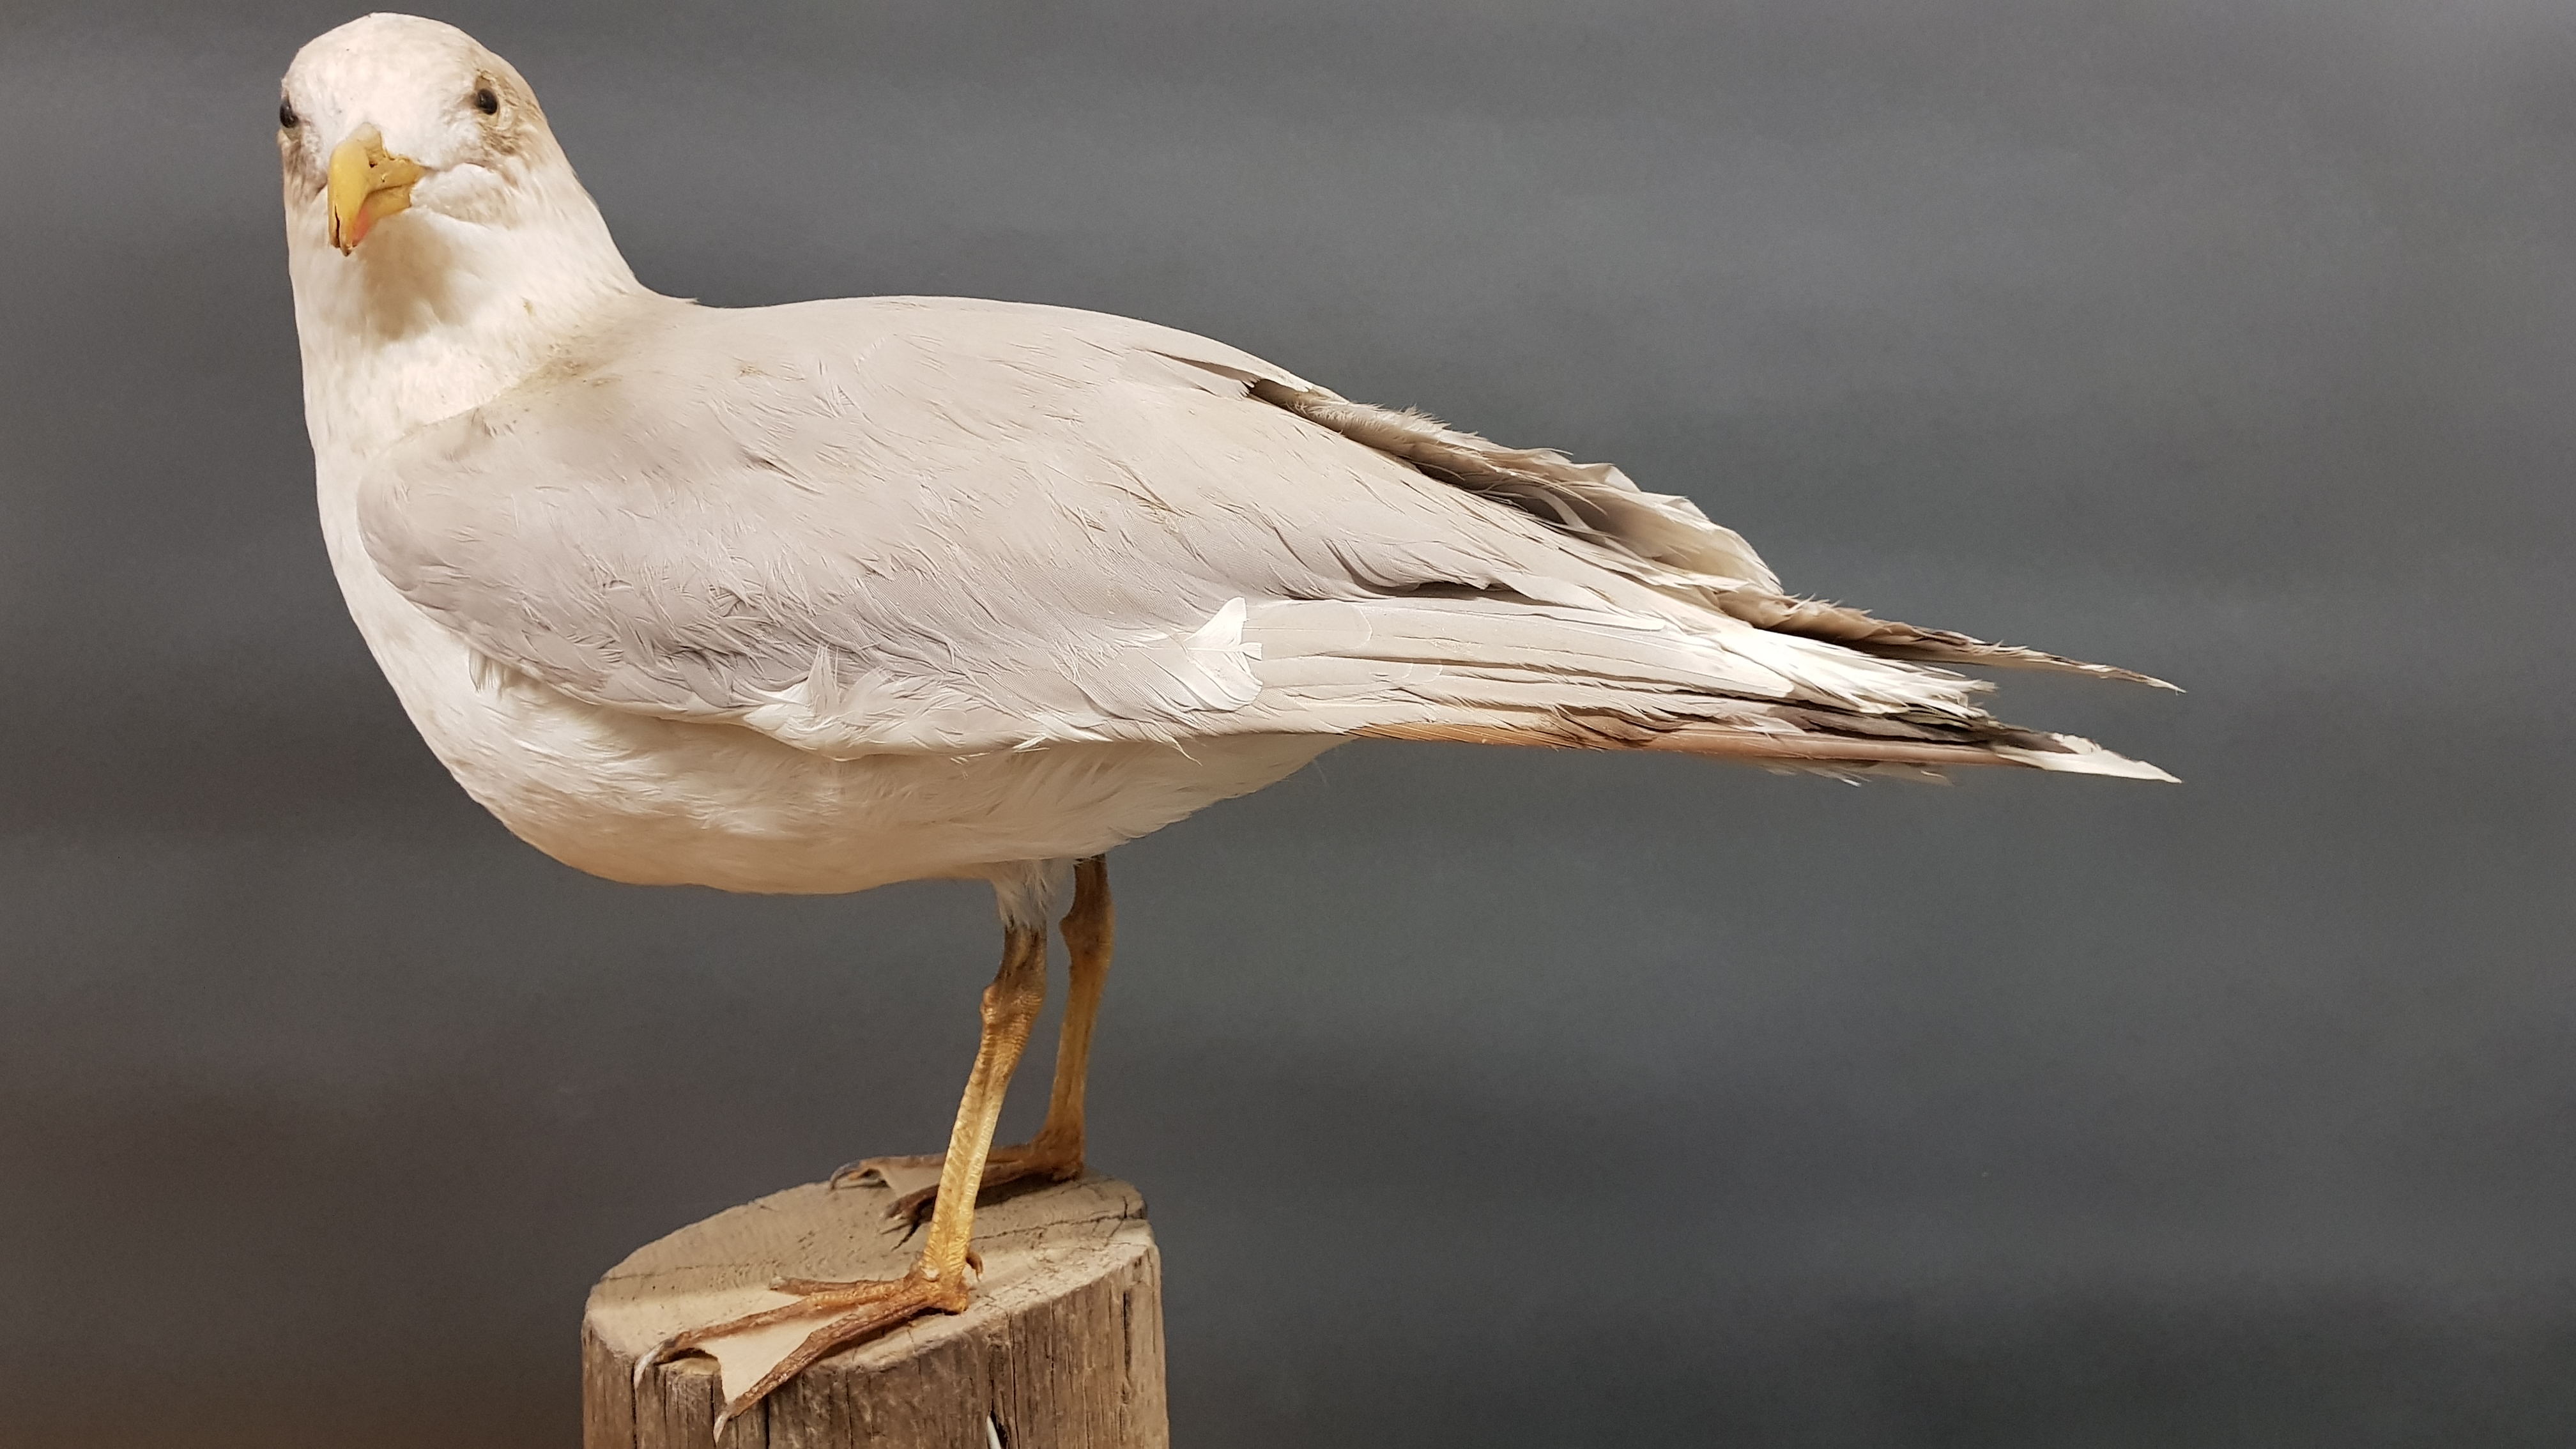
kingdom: Animalia
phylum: Chordata
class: Aves
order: Charadriiformes
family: Laridae
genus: Larus
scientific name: Larus argentatus
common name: Herring gull
